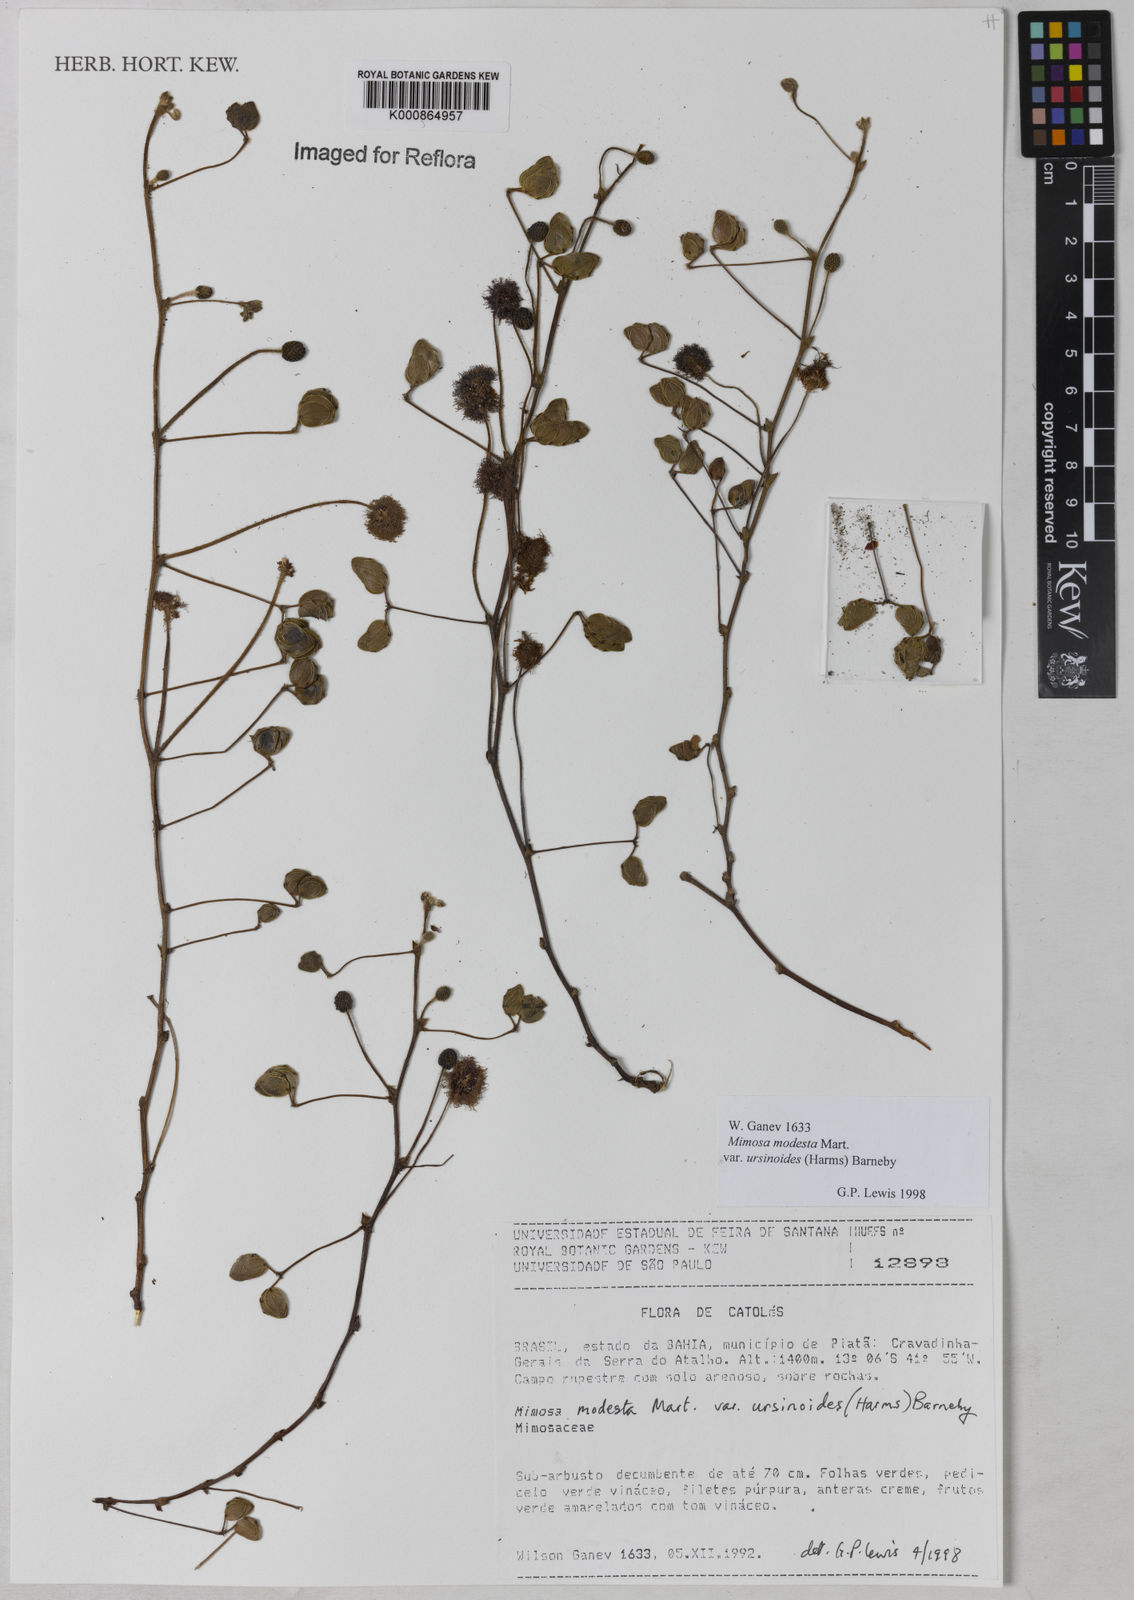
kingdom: Plantae
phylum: Tracheophyta
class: Magnoliopsida
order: Fabales
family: Fabaceae
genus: Mimosa
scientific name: Mimosa modesta
